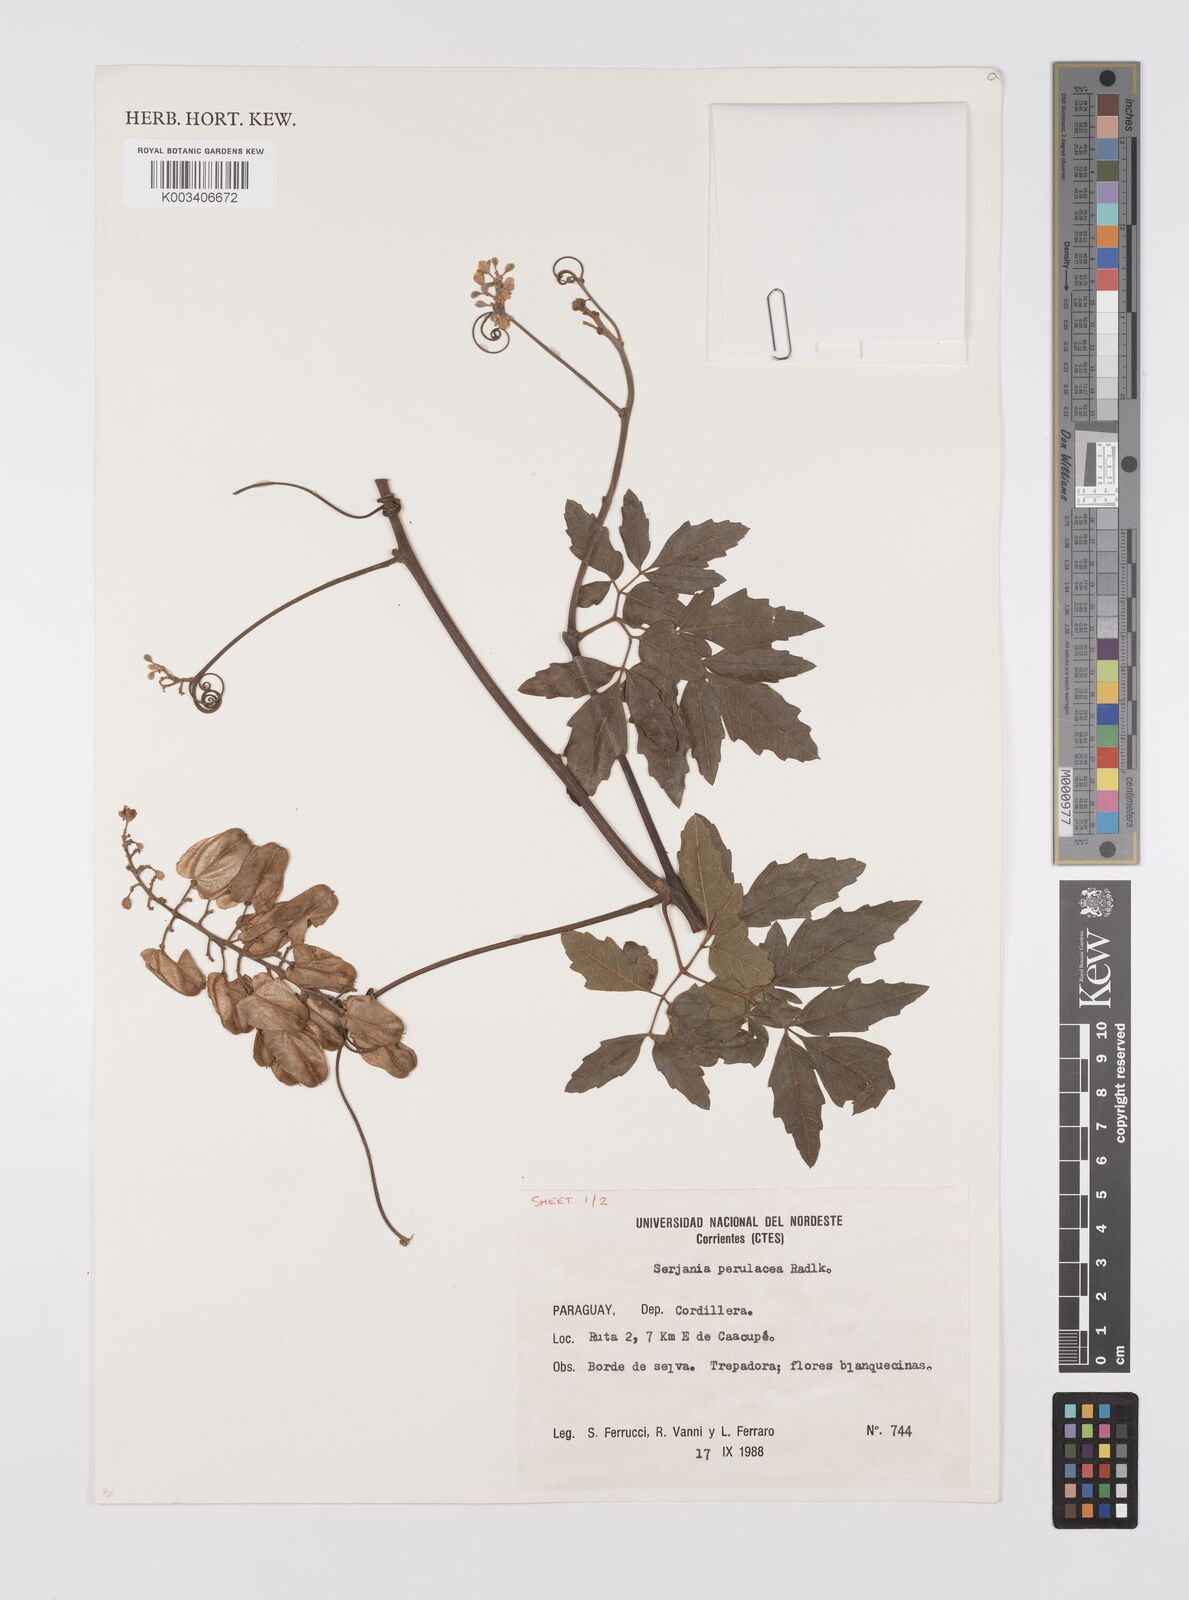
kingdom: Plantae
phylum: Tracheophyta
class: Magnoliopsida
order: Sapindales
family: Sapindaceae
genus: Serjania
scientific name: Serjania perulacea
